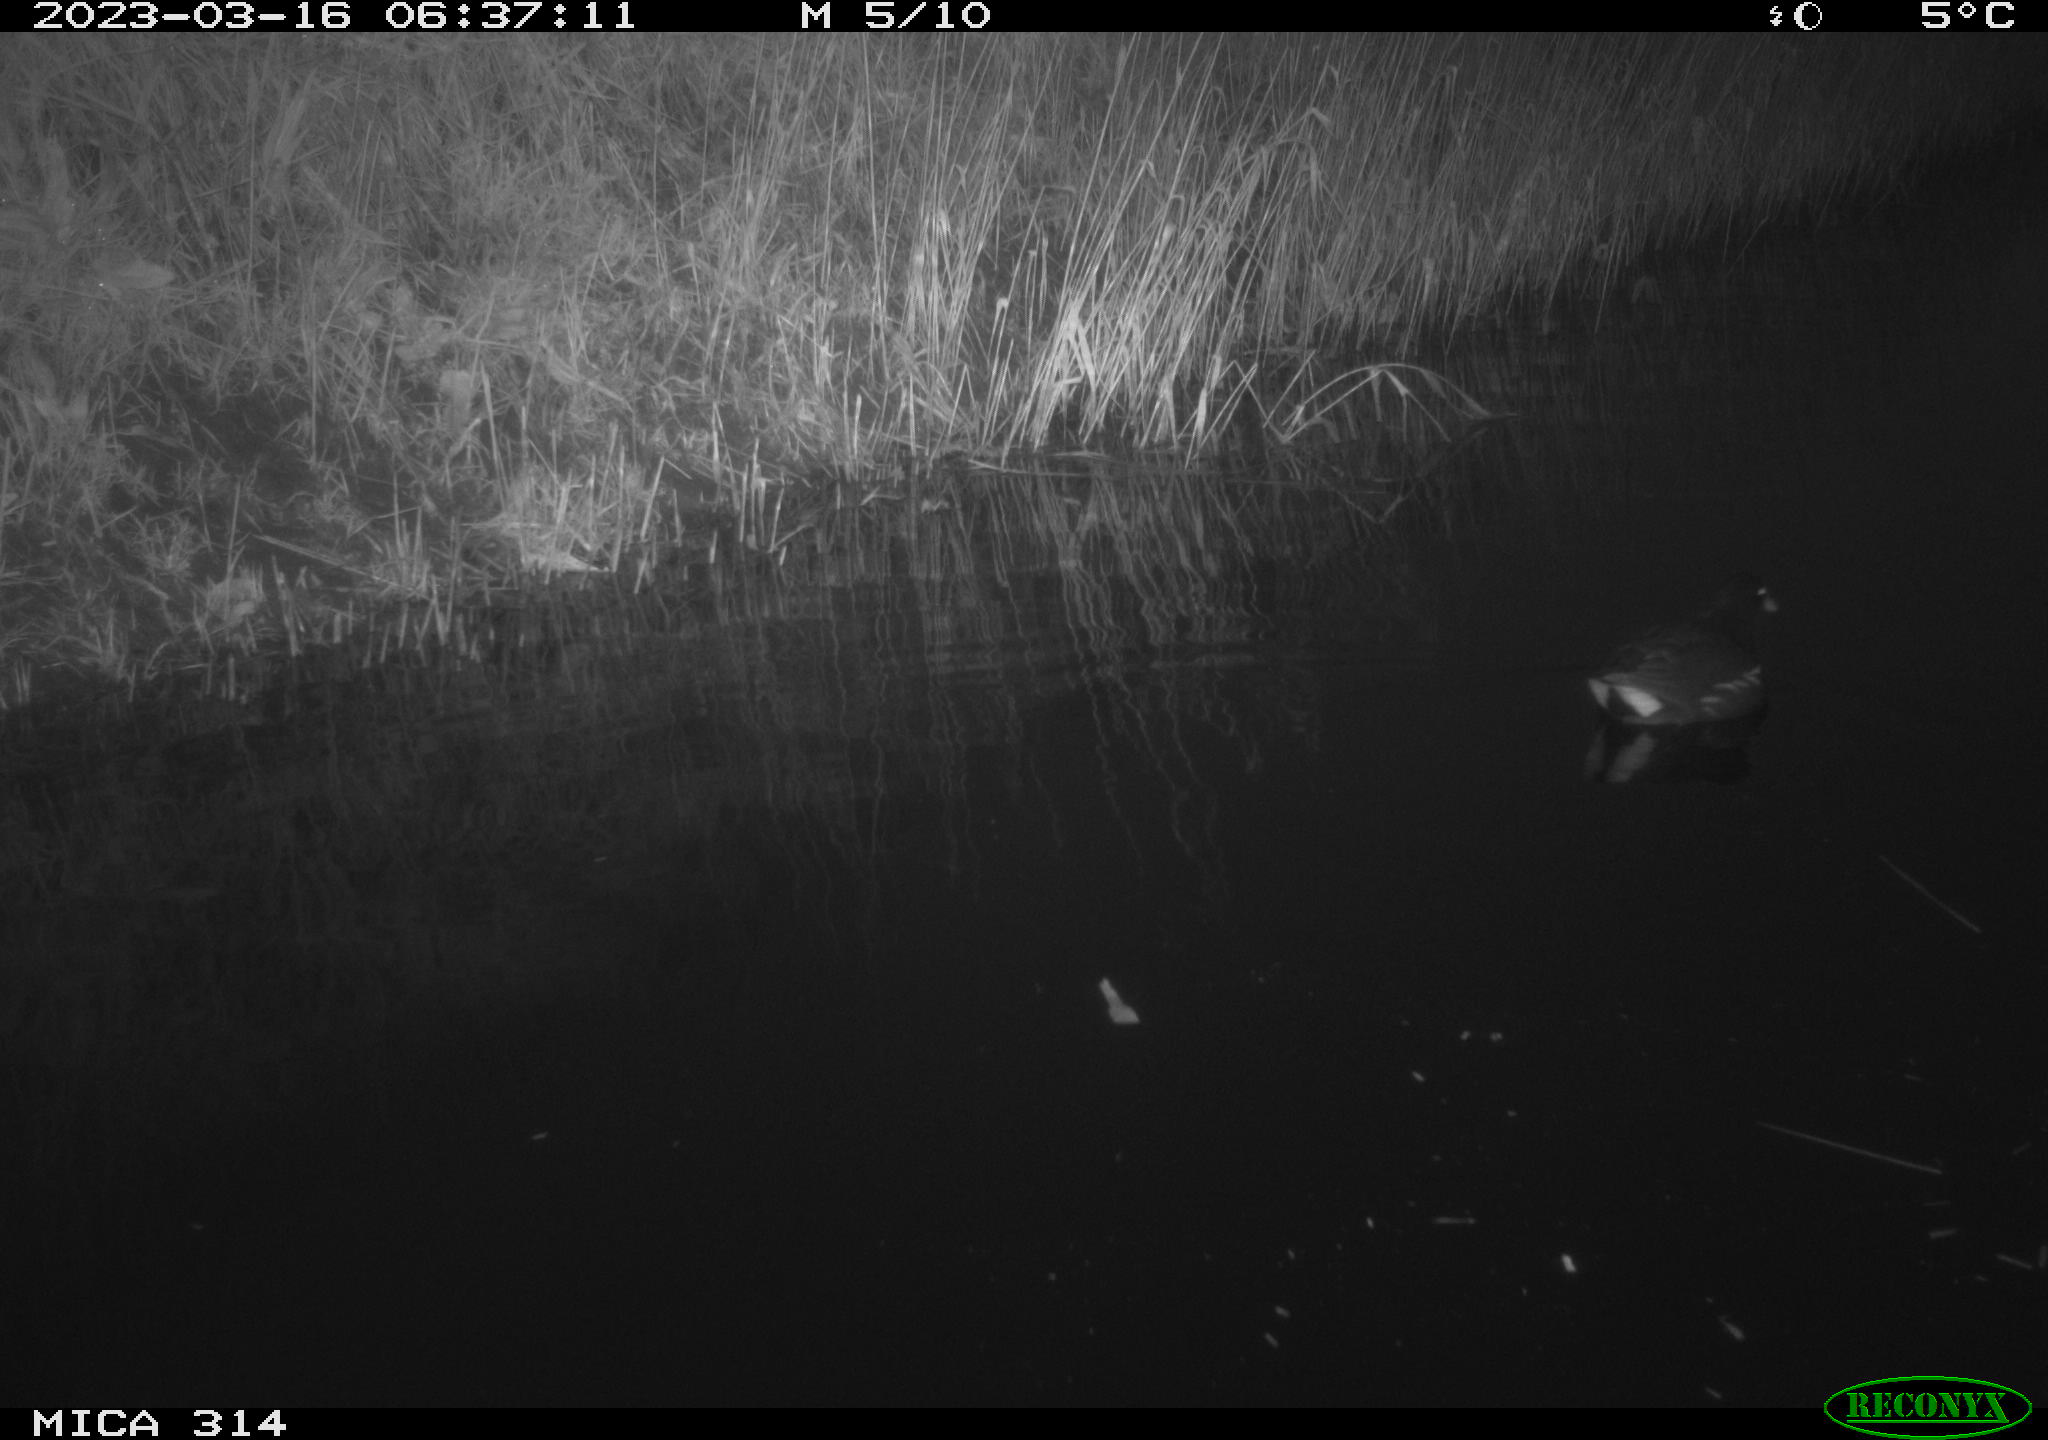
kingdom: Animalia
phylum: Chordata
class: Aves
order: Gruiformes
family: Rallidae
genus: Gallinula
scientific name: Gallinula chloropus
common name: Common moorhen
